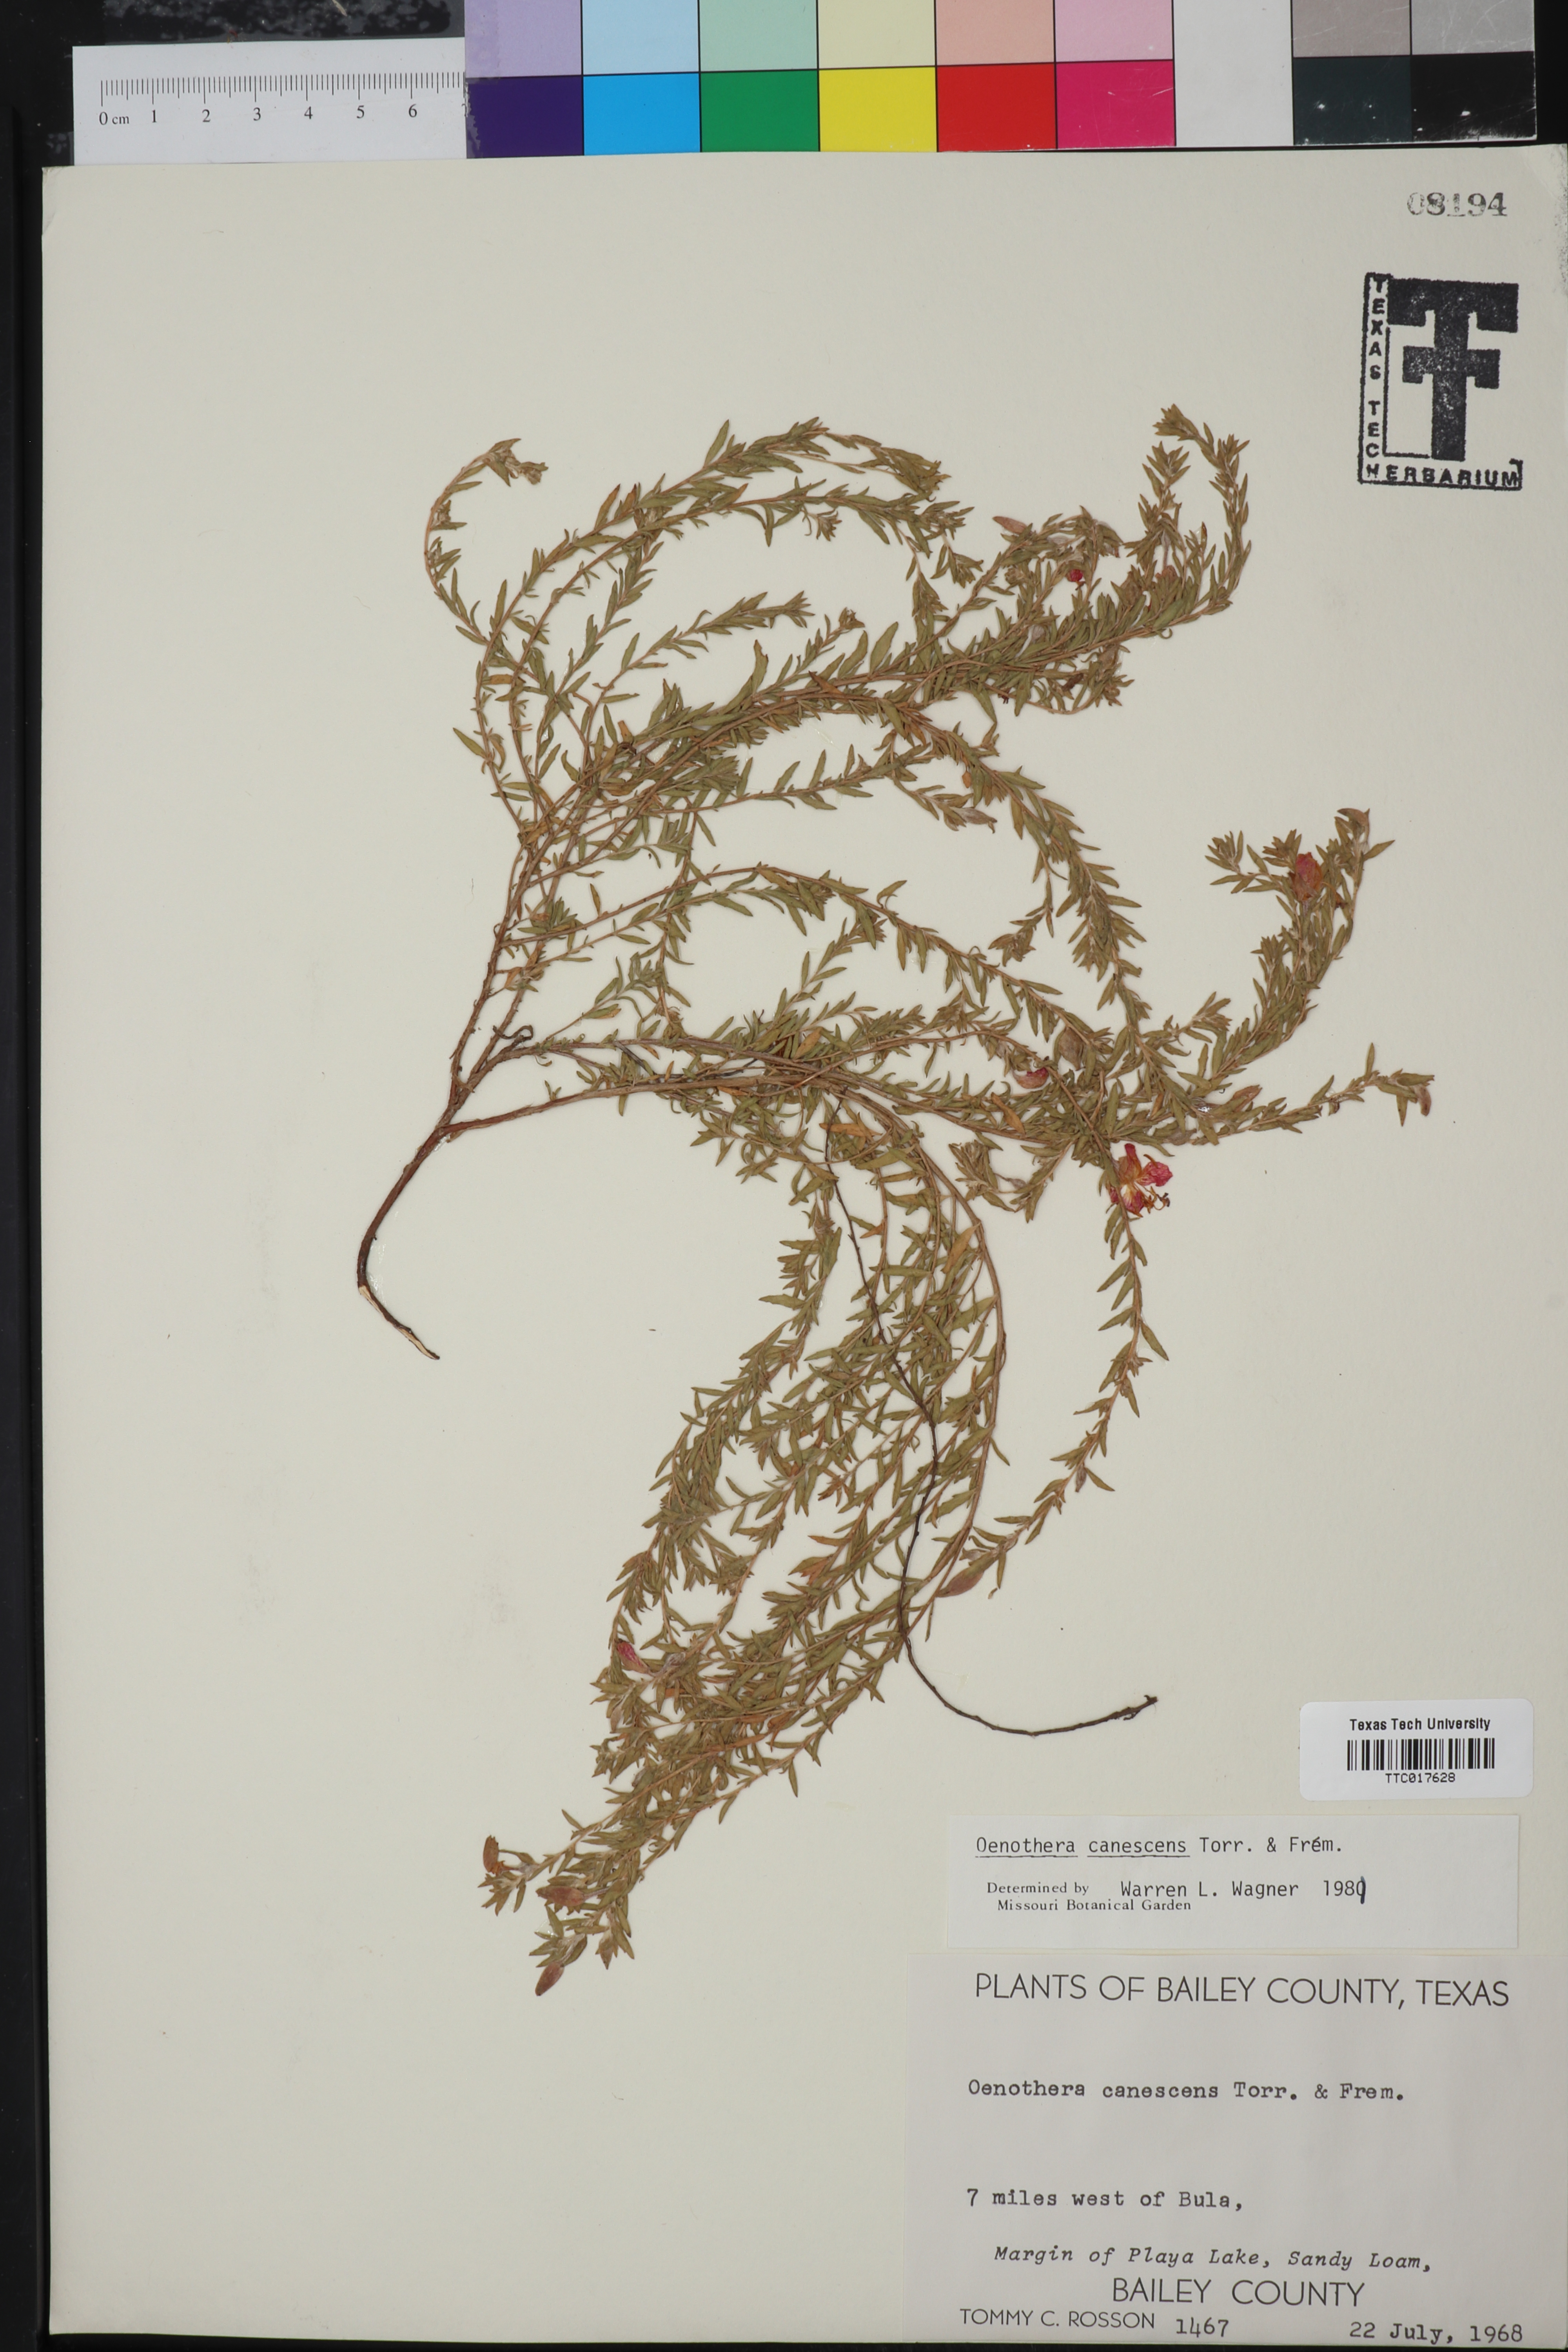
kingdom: Plantae
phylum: Tracheophyta
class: Magnoliopsida
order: Myrtales
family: Onagraceae
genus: Oenothera
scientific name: Oenothera canescens
